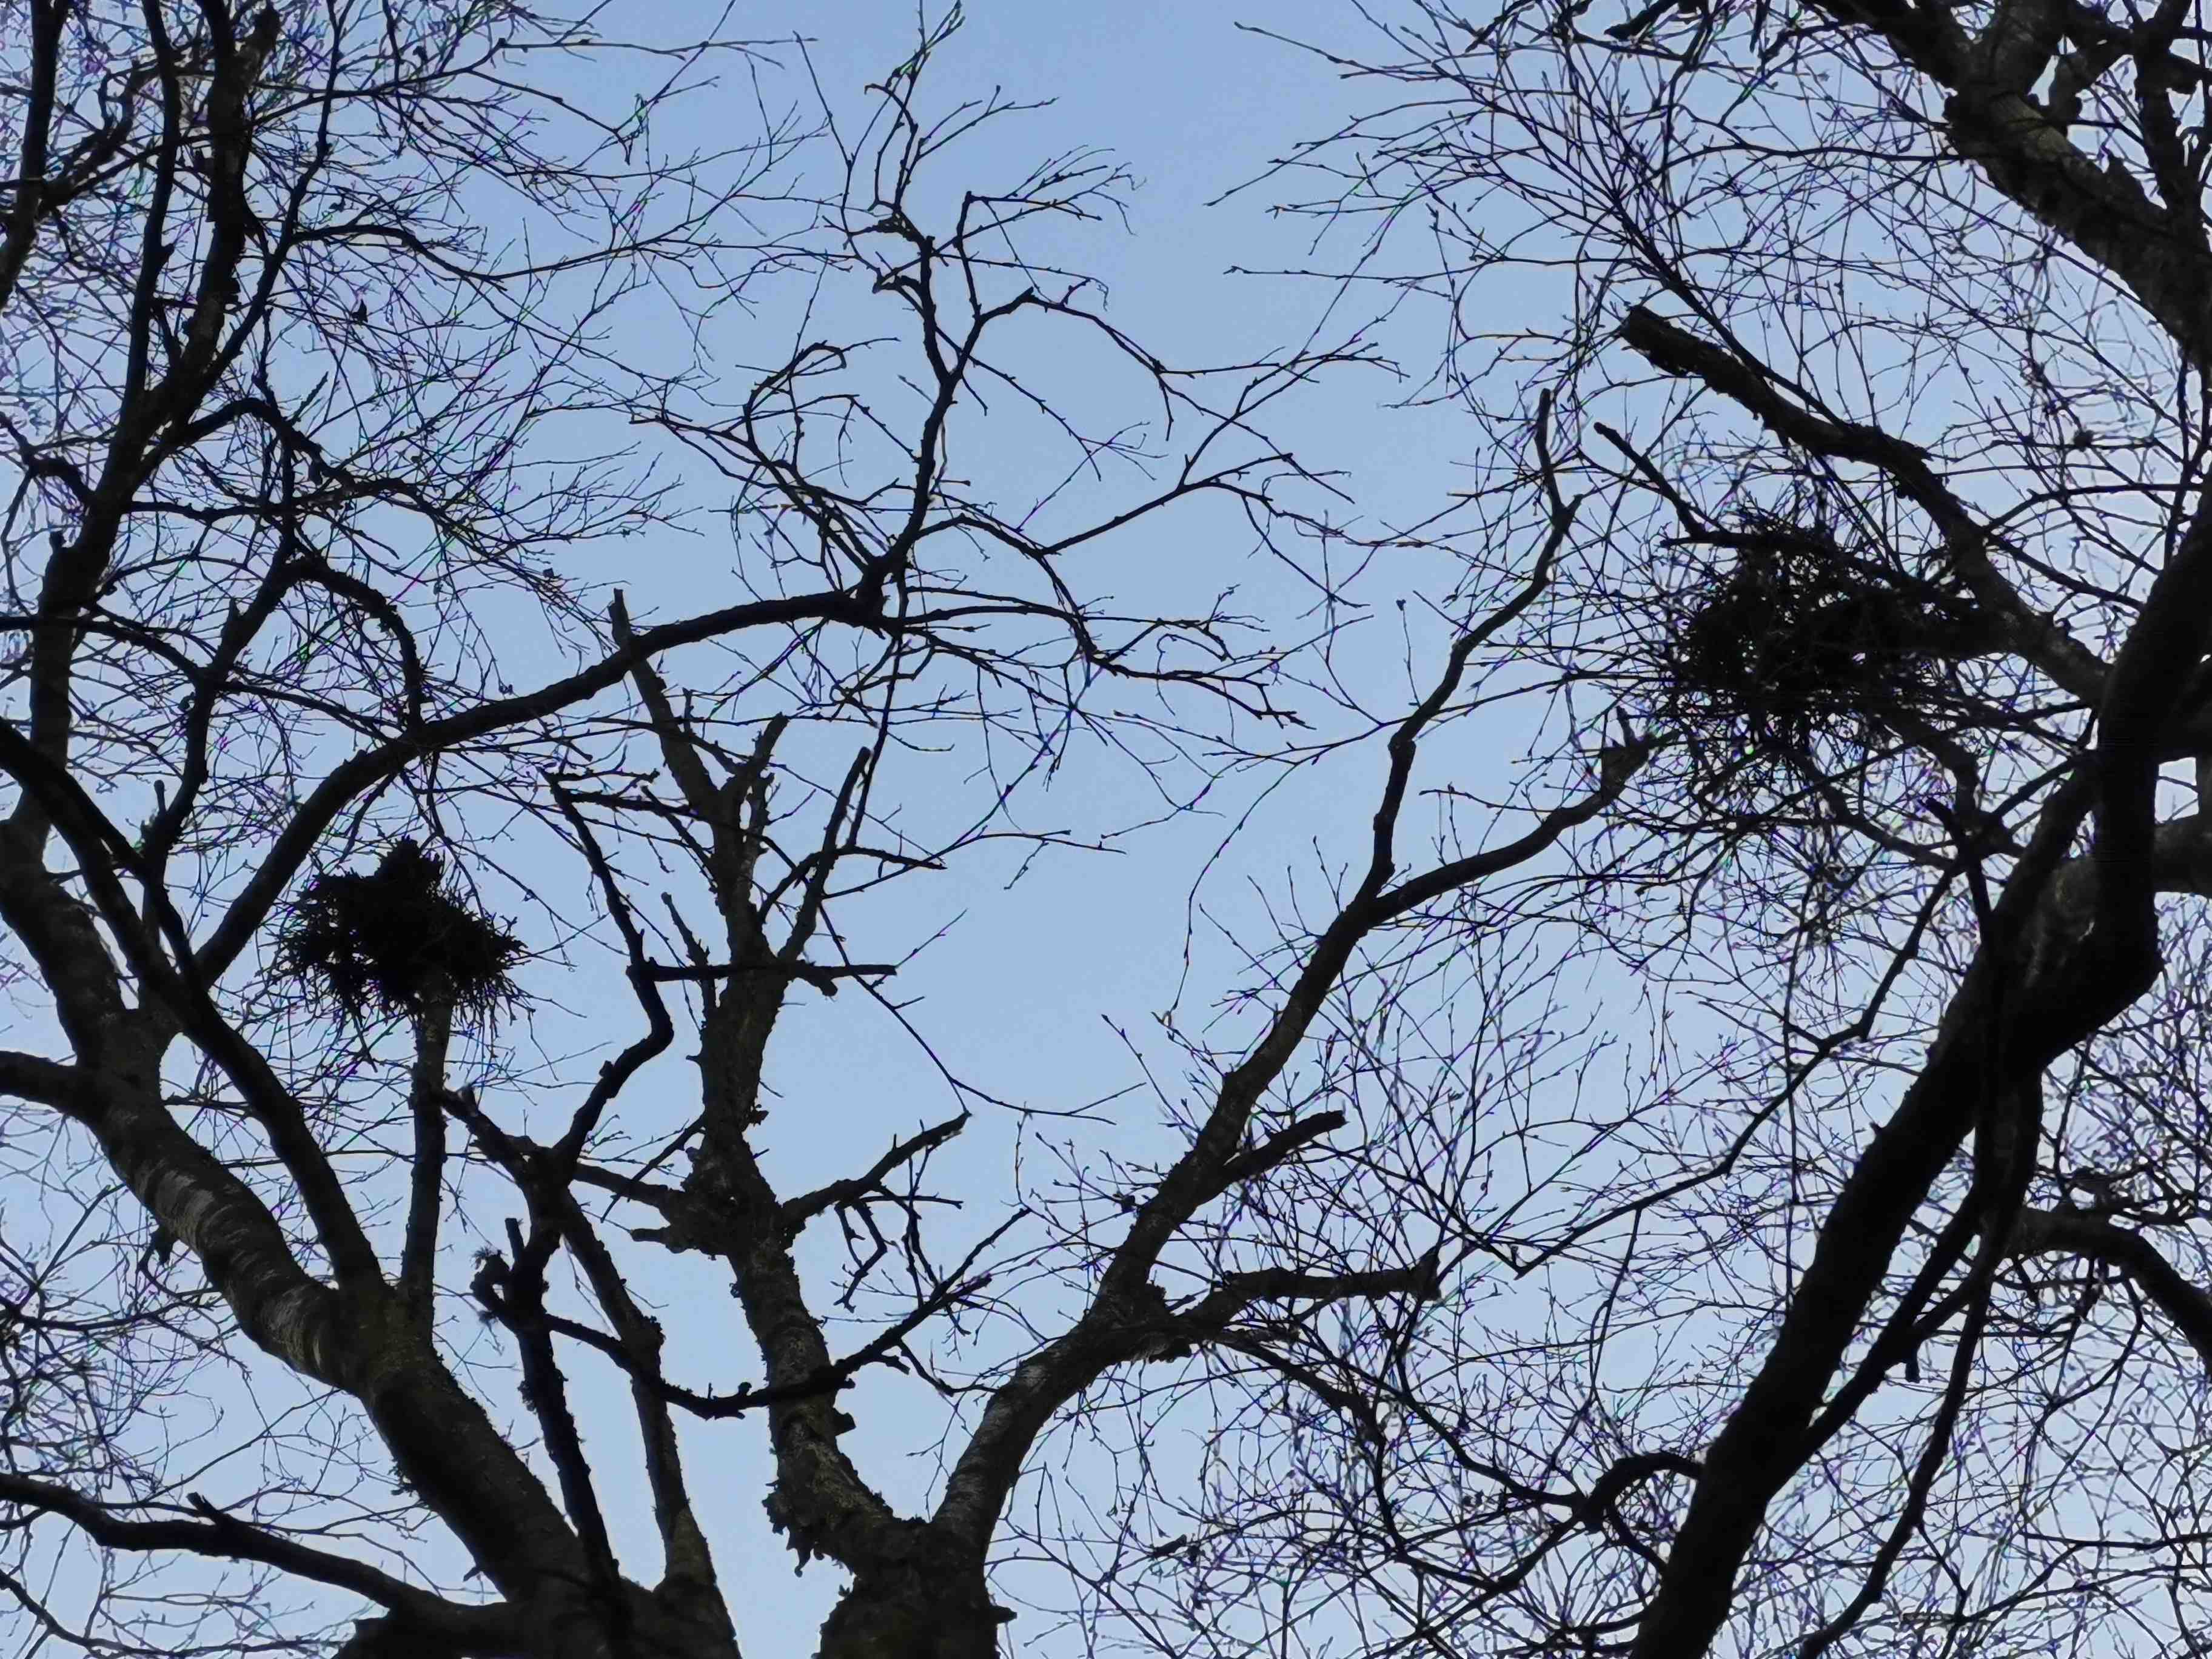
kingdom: Fungi
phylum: Ascomycota
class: Taphrinomycetes
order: Taphrinales
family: Taphrinaceae
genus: Taphrina
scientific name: Taphrina betulina
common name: hekse-sækdug
